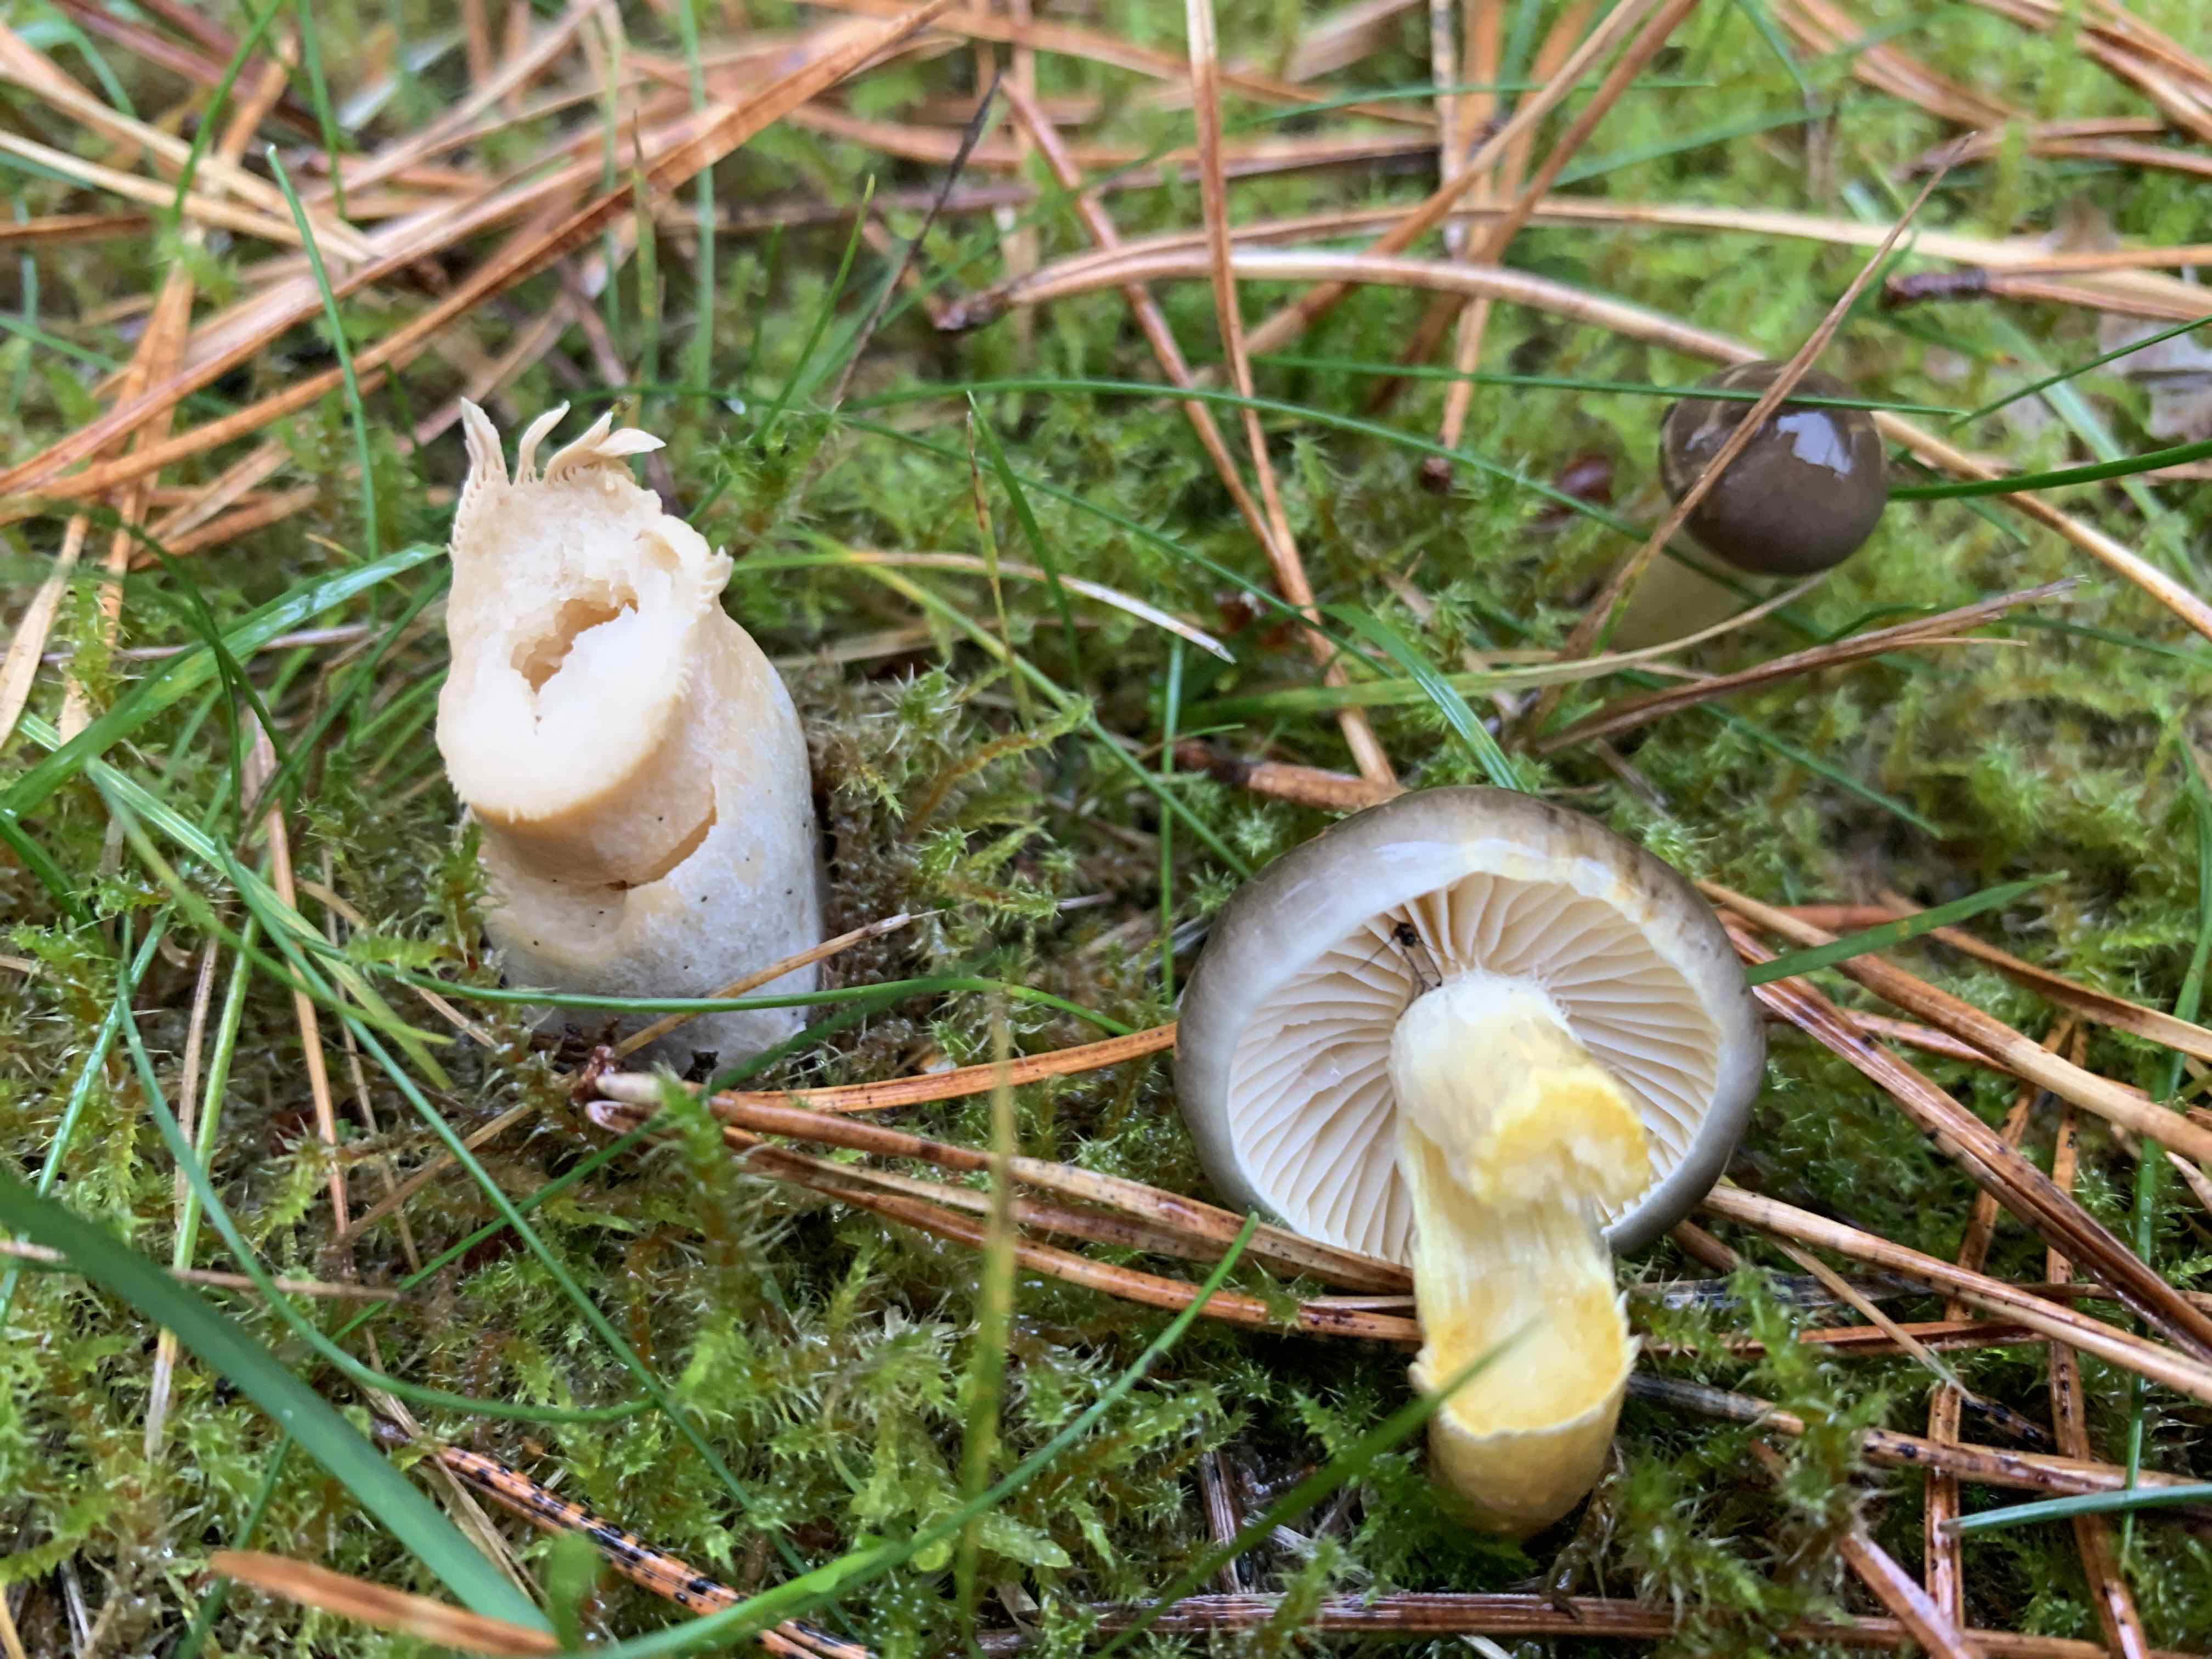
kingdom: Fungi
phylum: Basidiomycota
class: Agaricomycetes
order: Agaricales
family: Hygrophoraceae
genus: Hygrophorus
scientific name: Hygrophorus hypothejus
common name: frost-sneglehat
